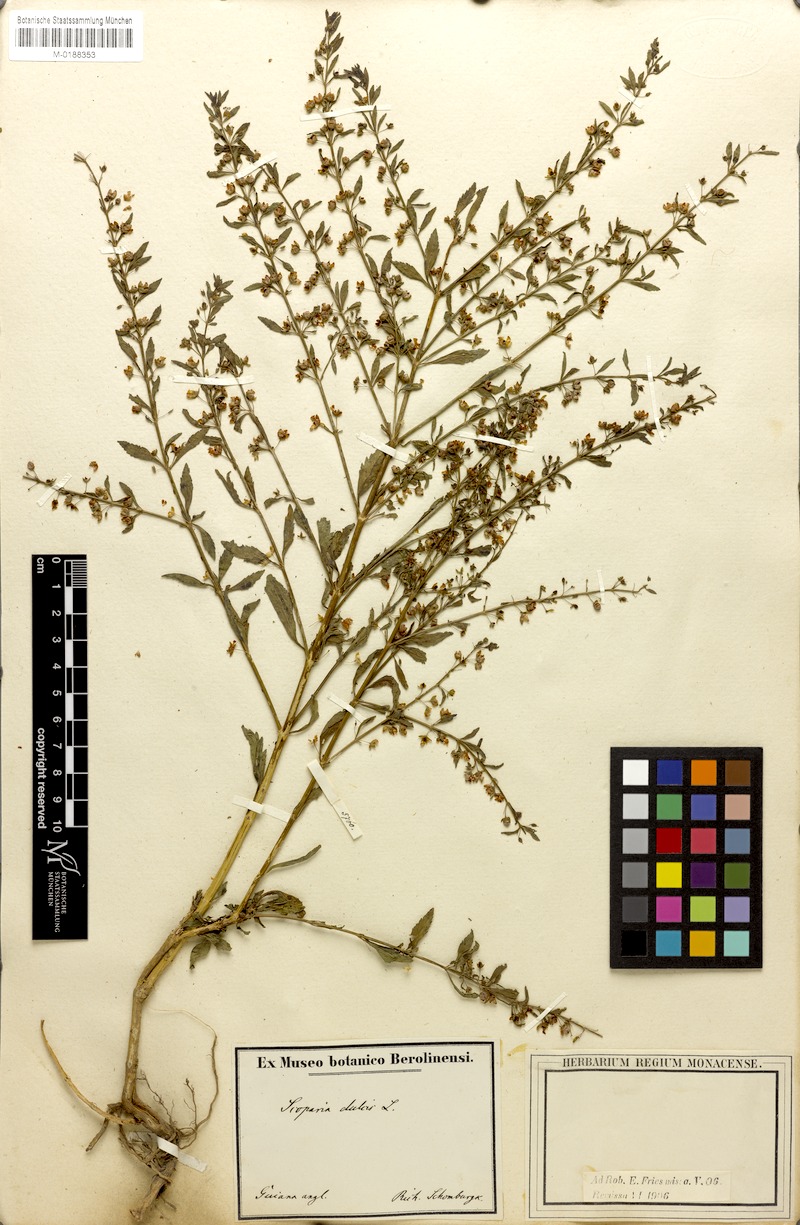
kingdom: Plantae
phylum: Tracheophyta
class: Magnoliopsida
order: Lamiales
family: Plantaginaceae
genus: Scoparia
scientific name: Scoparia dulcis
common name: Scoparia-weed
